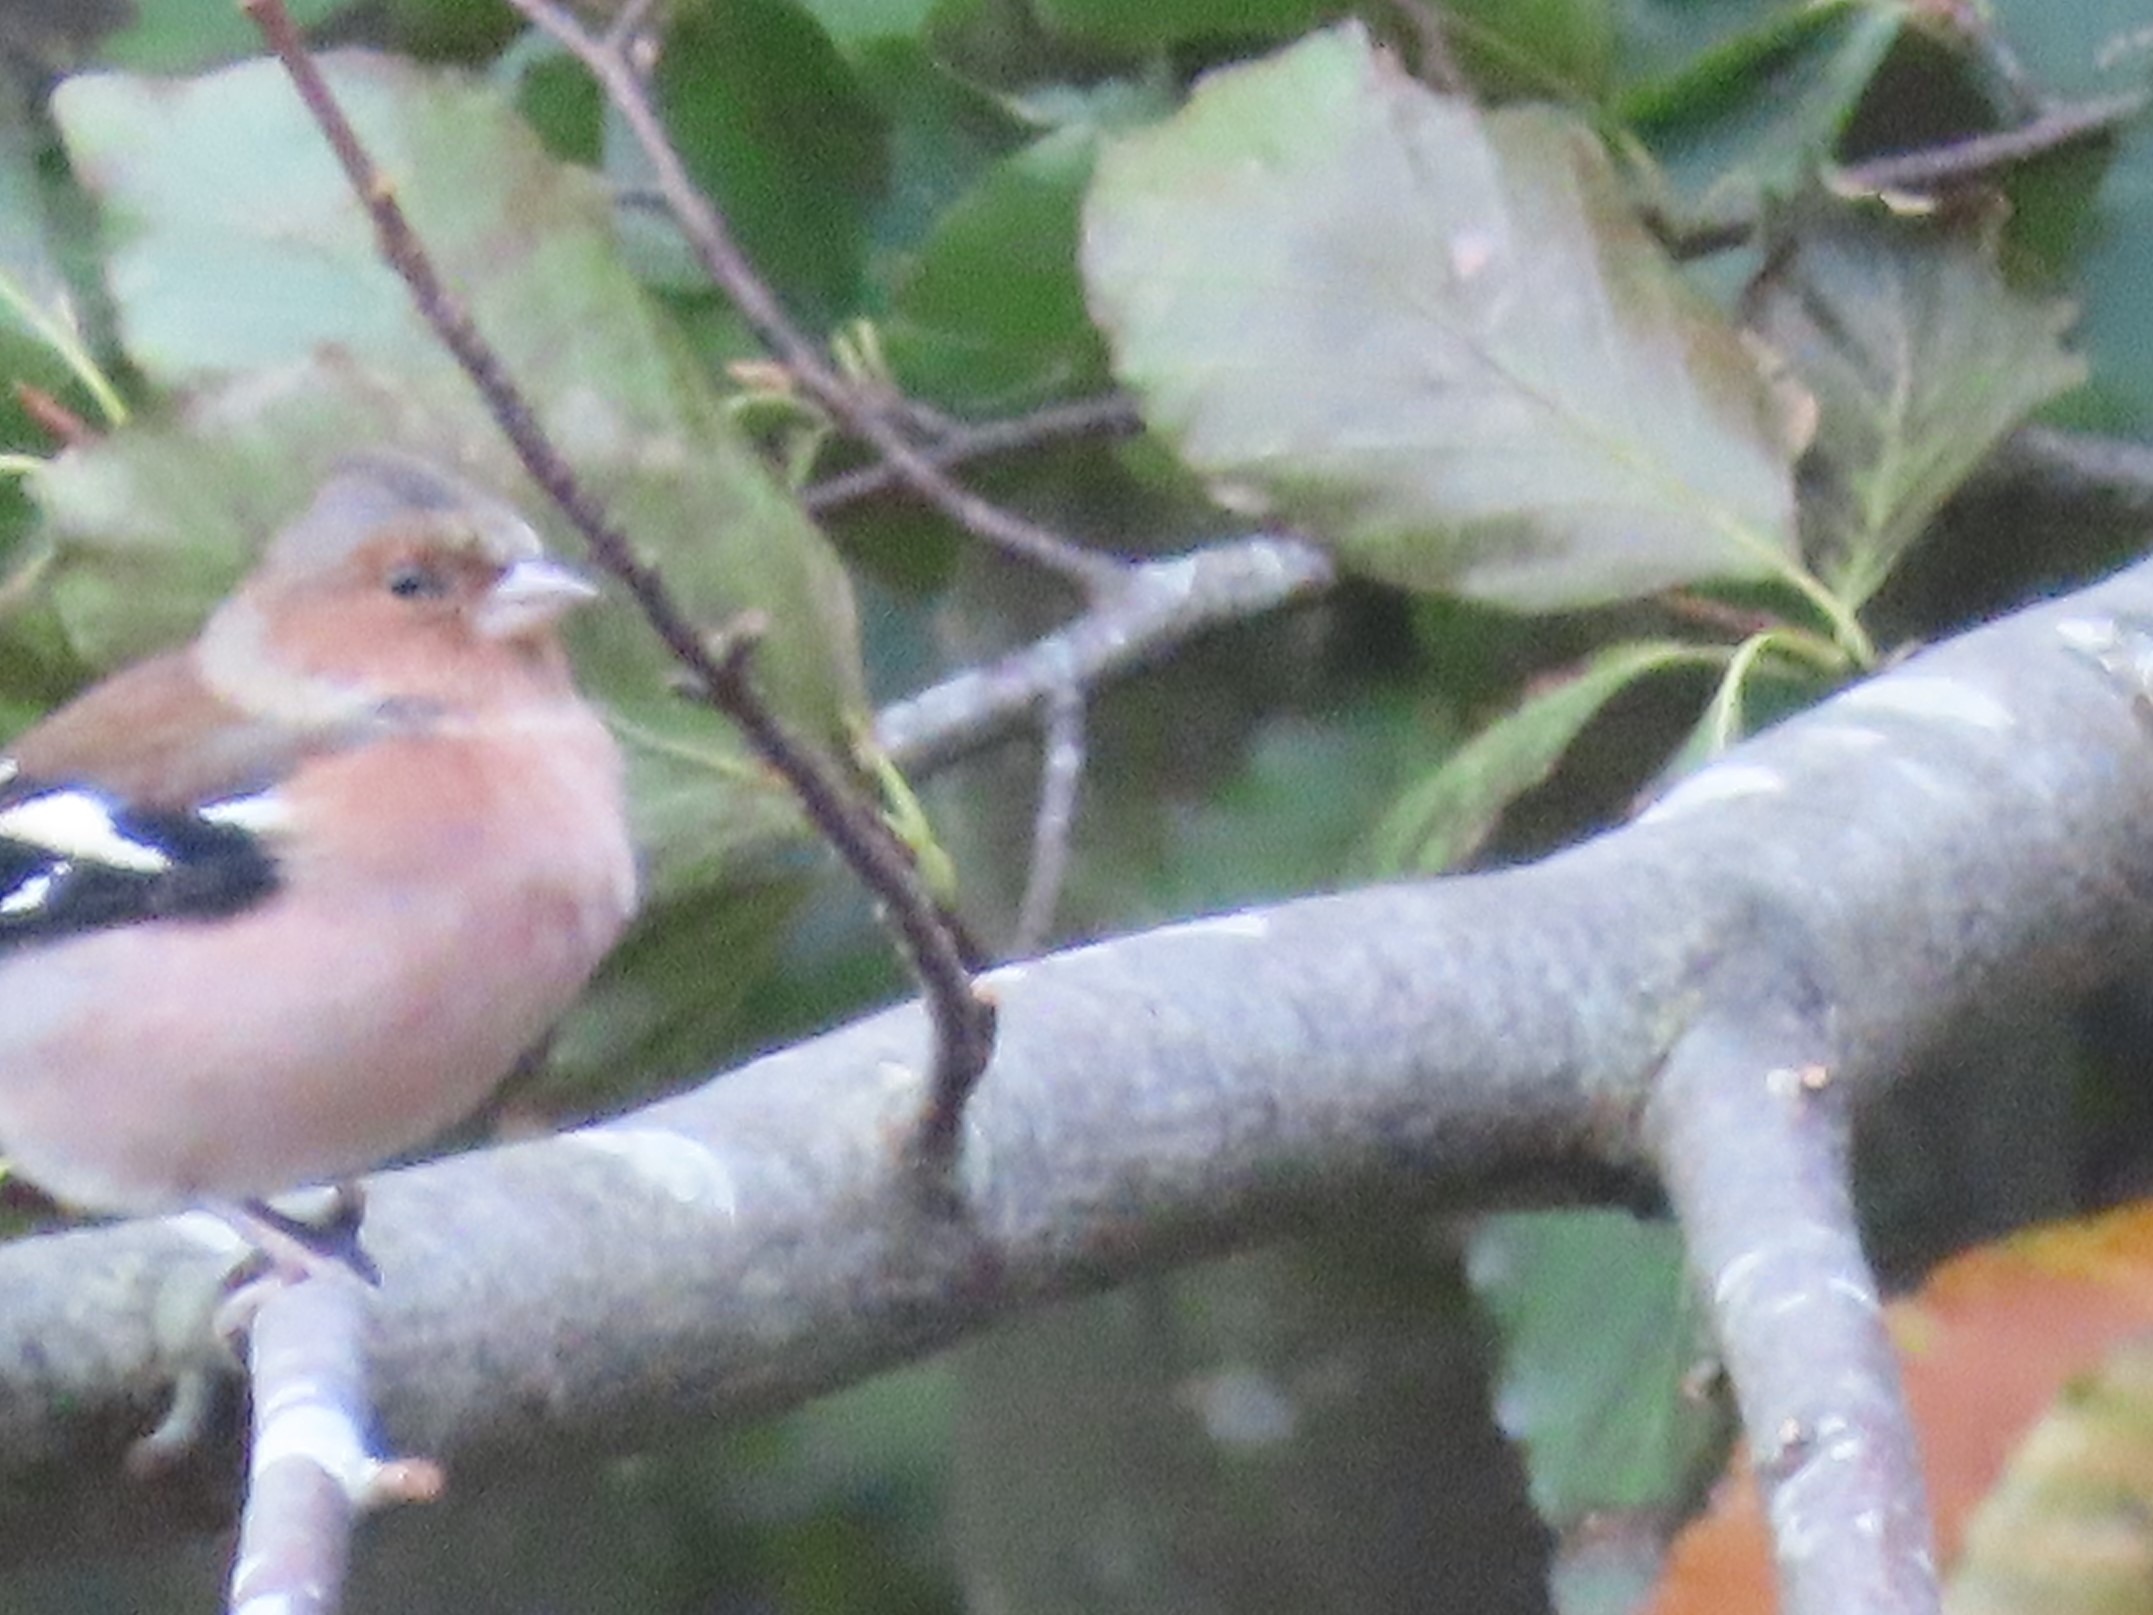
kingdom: Animalia
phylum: Chordata
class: Aves
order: Passeriformes
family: Fringillidae
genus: Fringilla
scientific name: Fringilla coelebs
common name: Bogfinke
